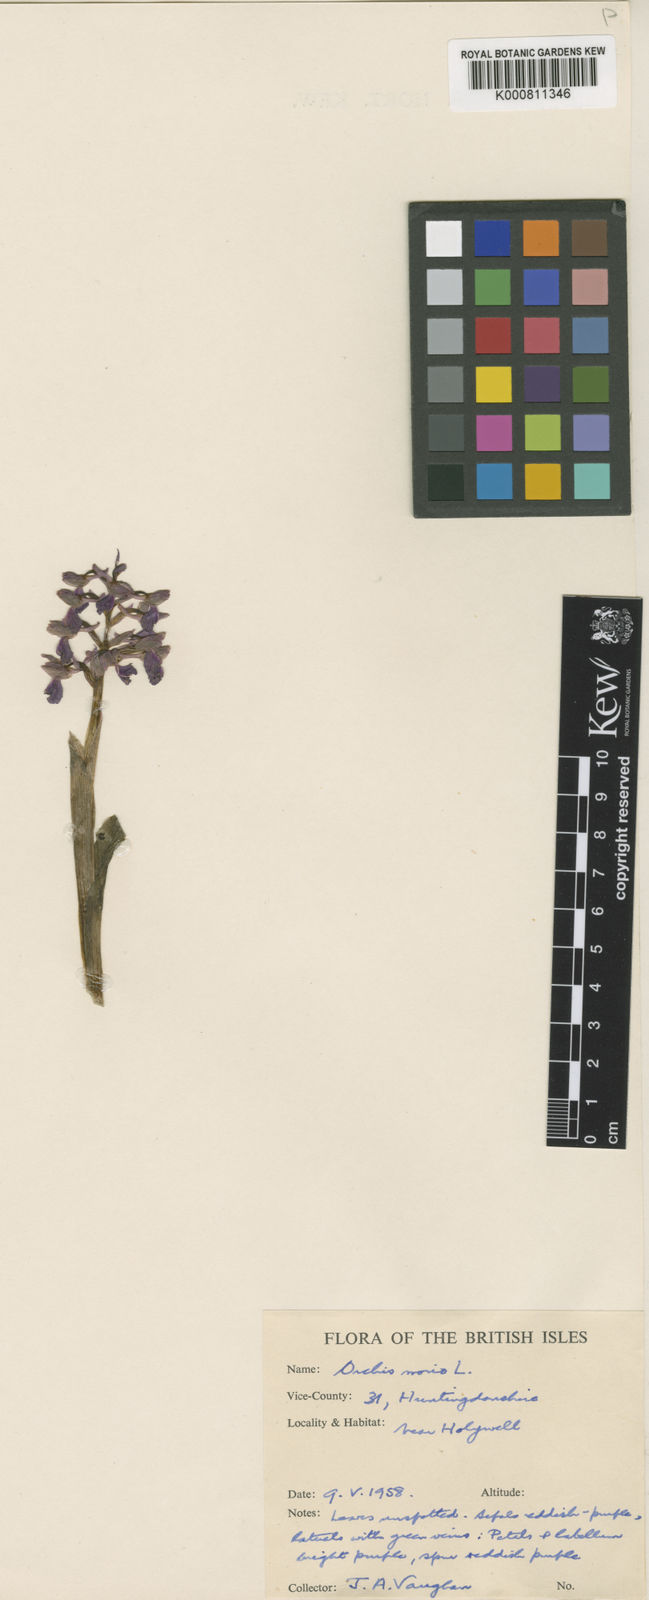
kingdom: Plantae
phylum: Tracheophyta
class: Liliopsida
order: Asparagales
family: Orchidaceae
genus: Anacamptis
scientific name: Anacamptis morio
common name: Green-winged orchid
